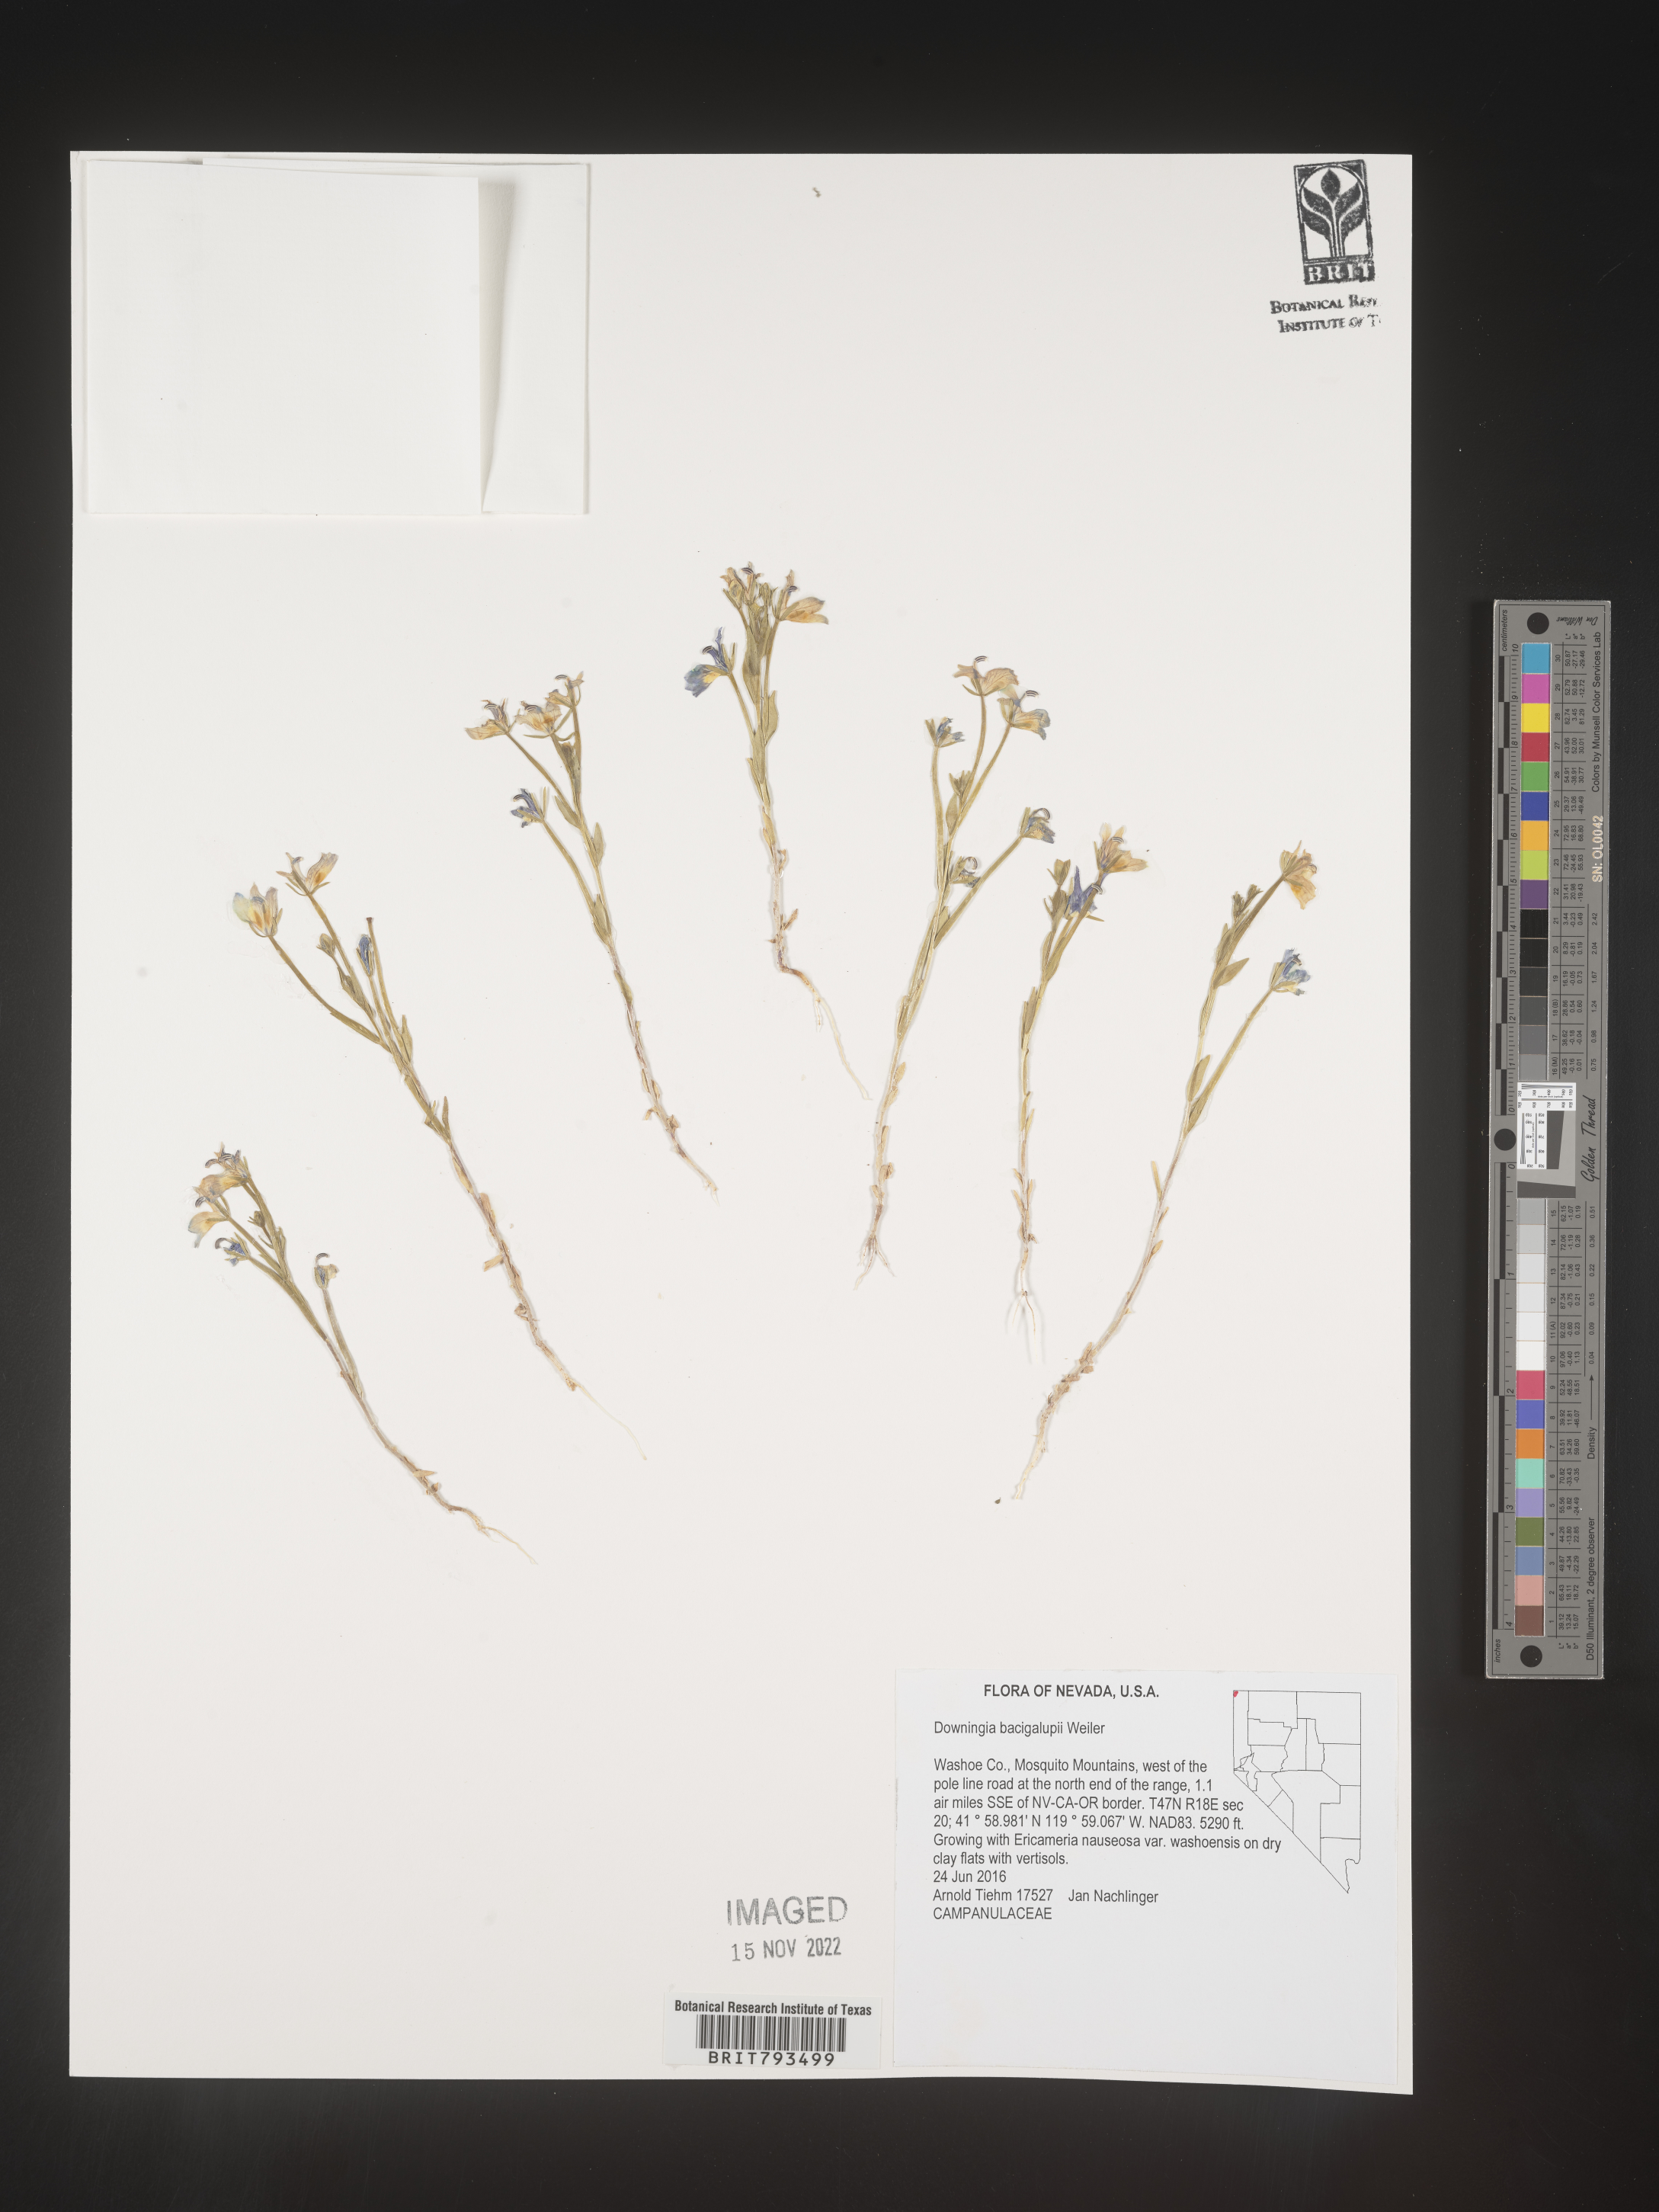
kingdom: Plantae
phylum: Tracheophyta
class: Magnoliopsida
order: Asterales
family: Campanulaceae
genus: Downingia
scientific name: Downingia bacigalupii
